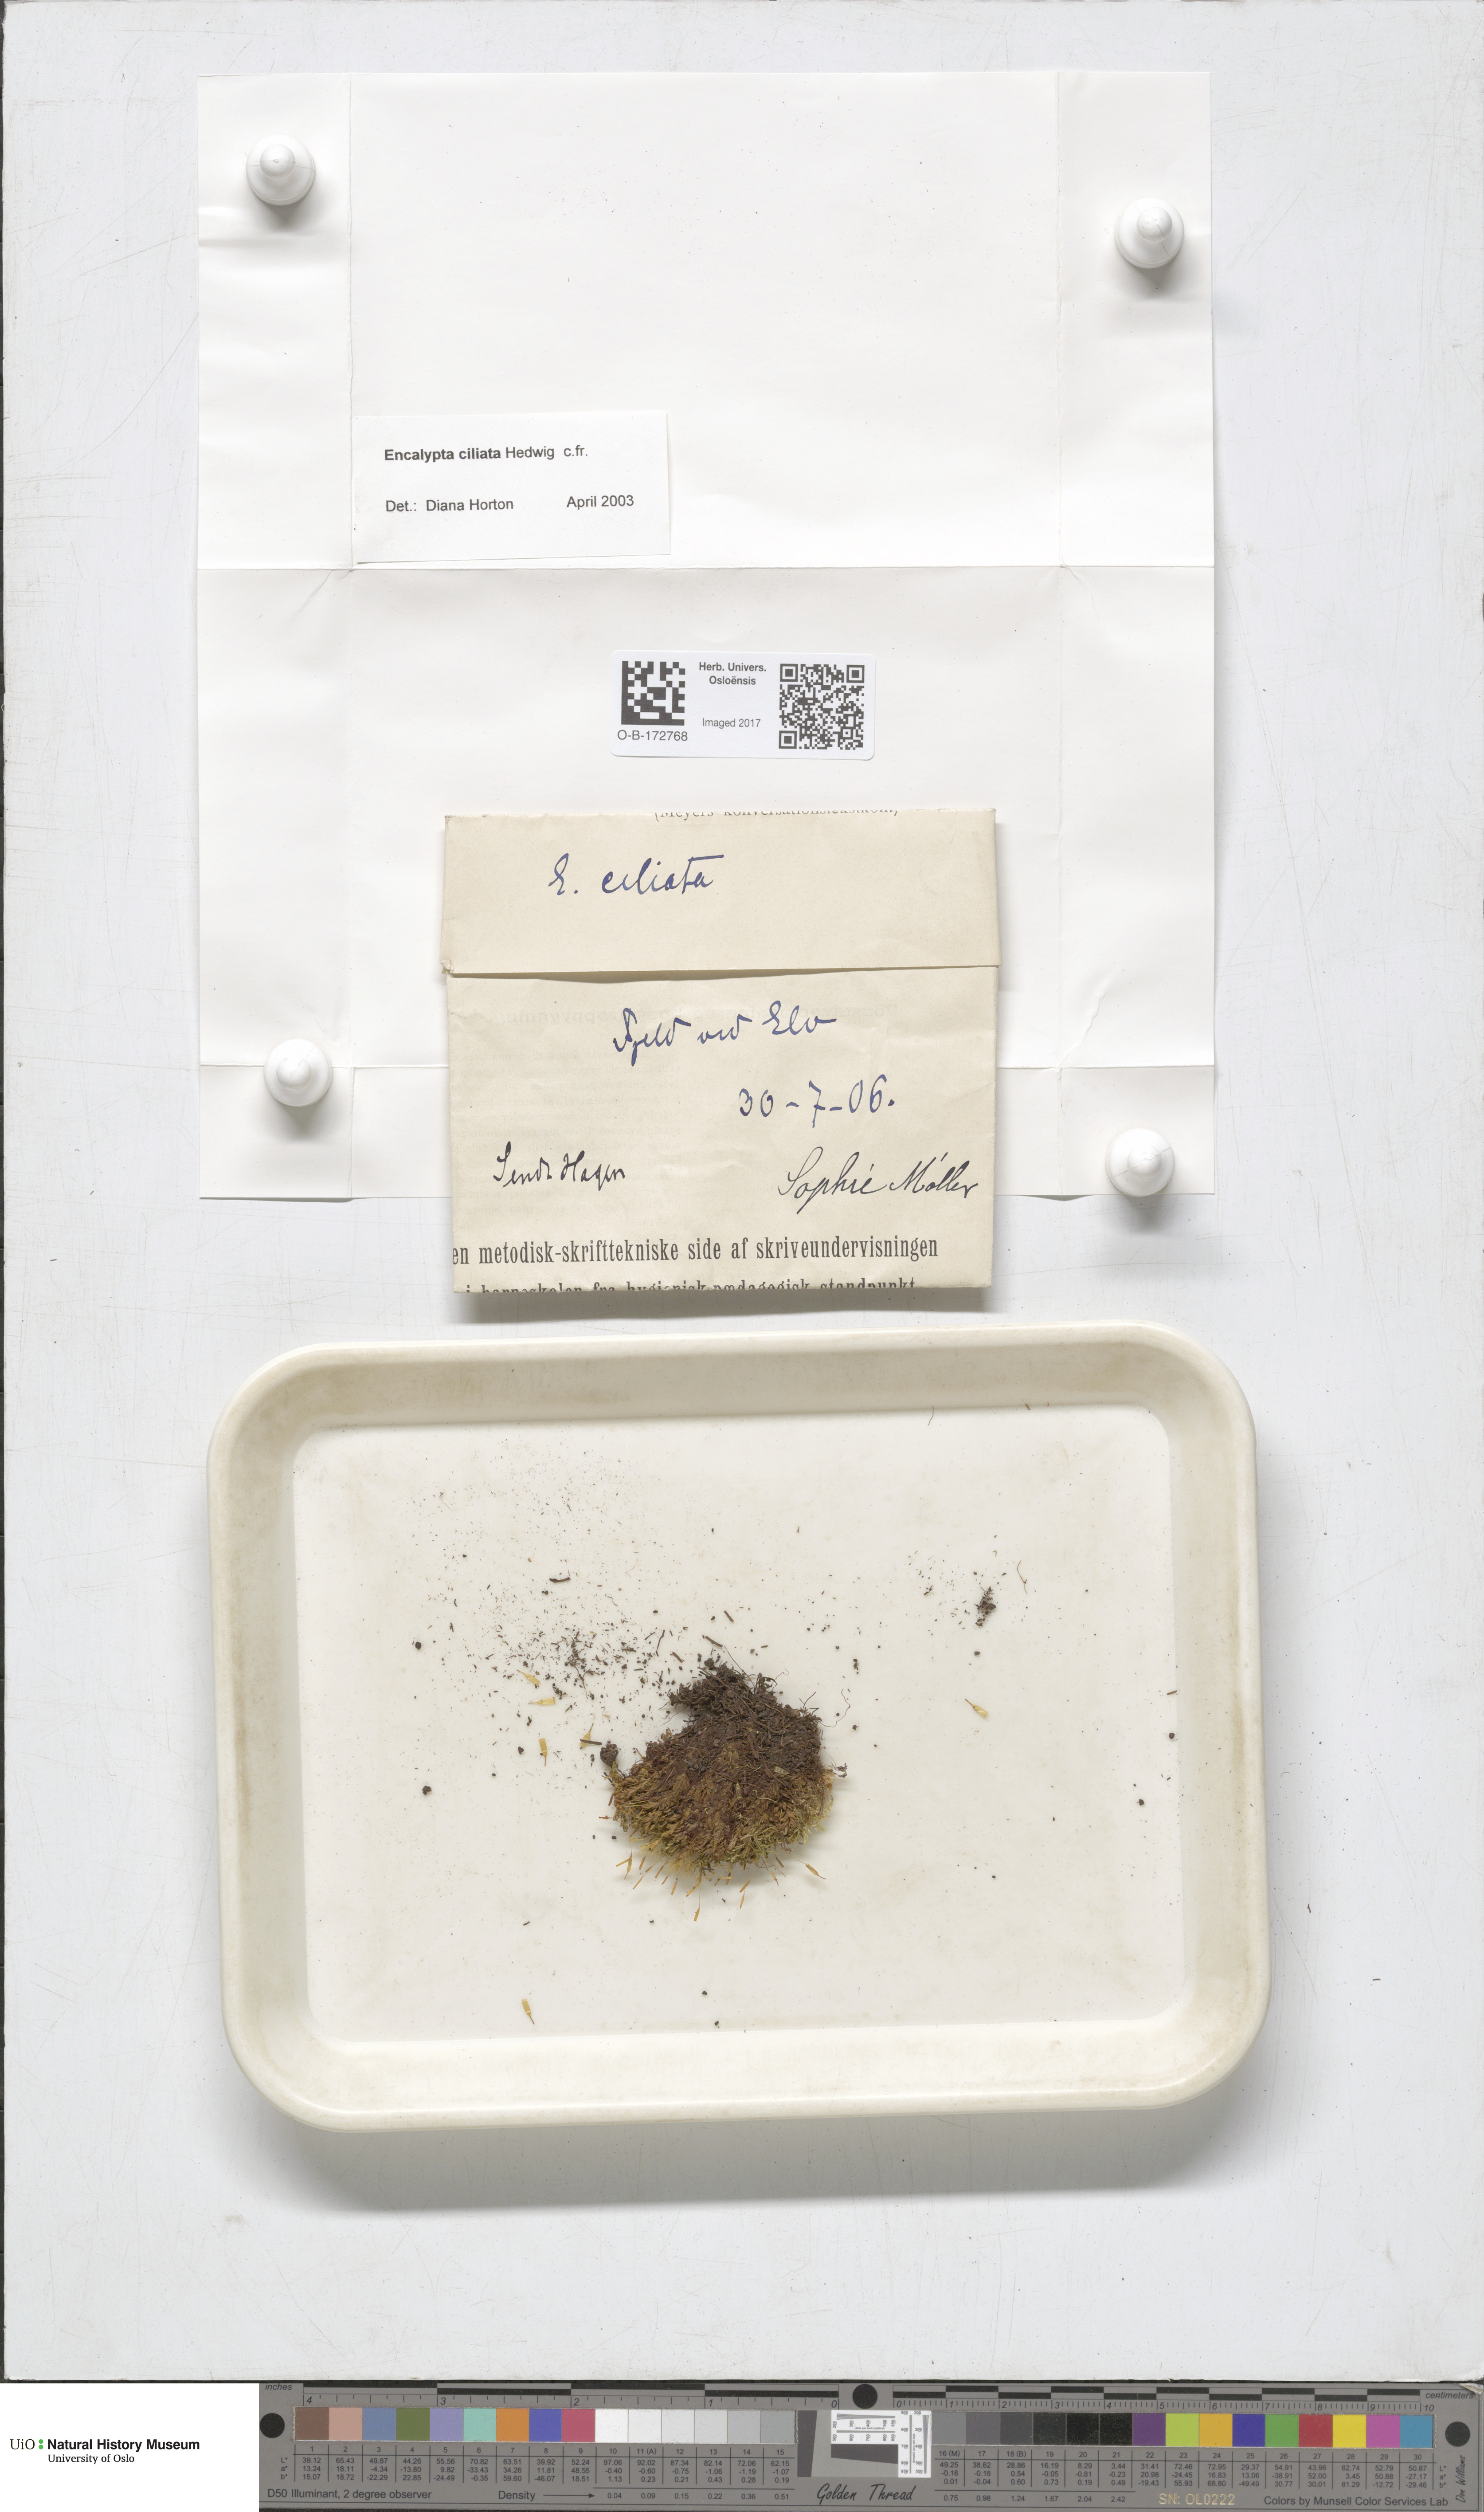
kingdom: Plantae
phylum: Bryophyta
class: Bryopsida
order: Encalyptales
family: Encalyptaceae
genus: Encalypta
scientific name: Encalypta ciliata
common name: Fringed extinguisher-moss
